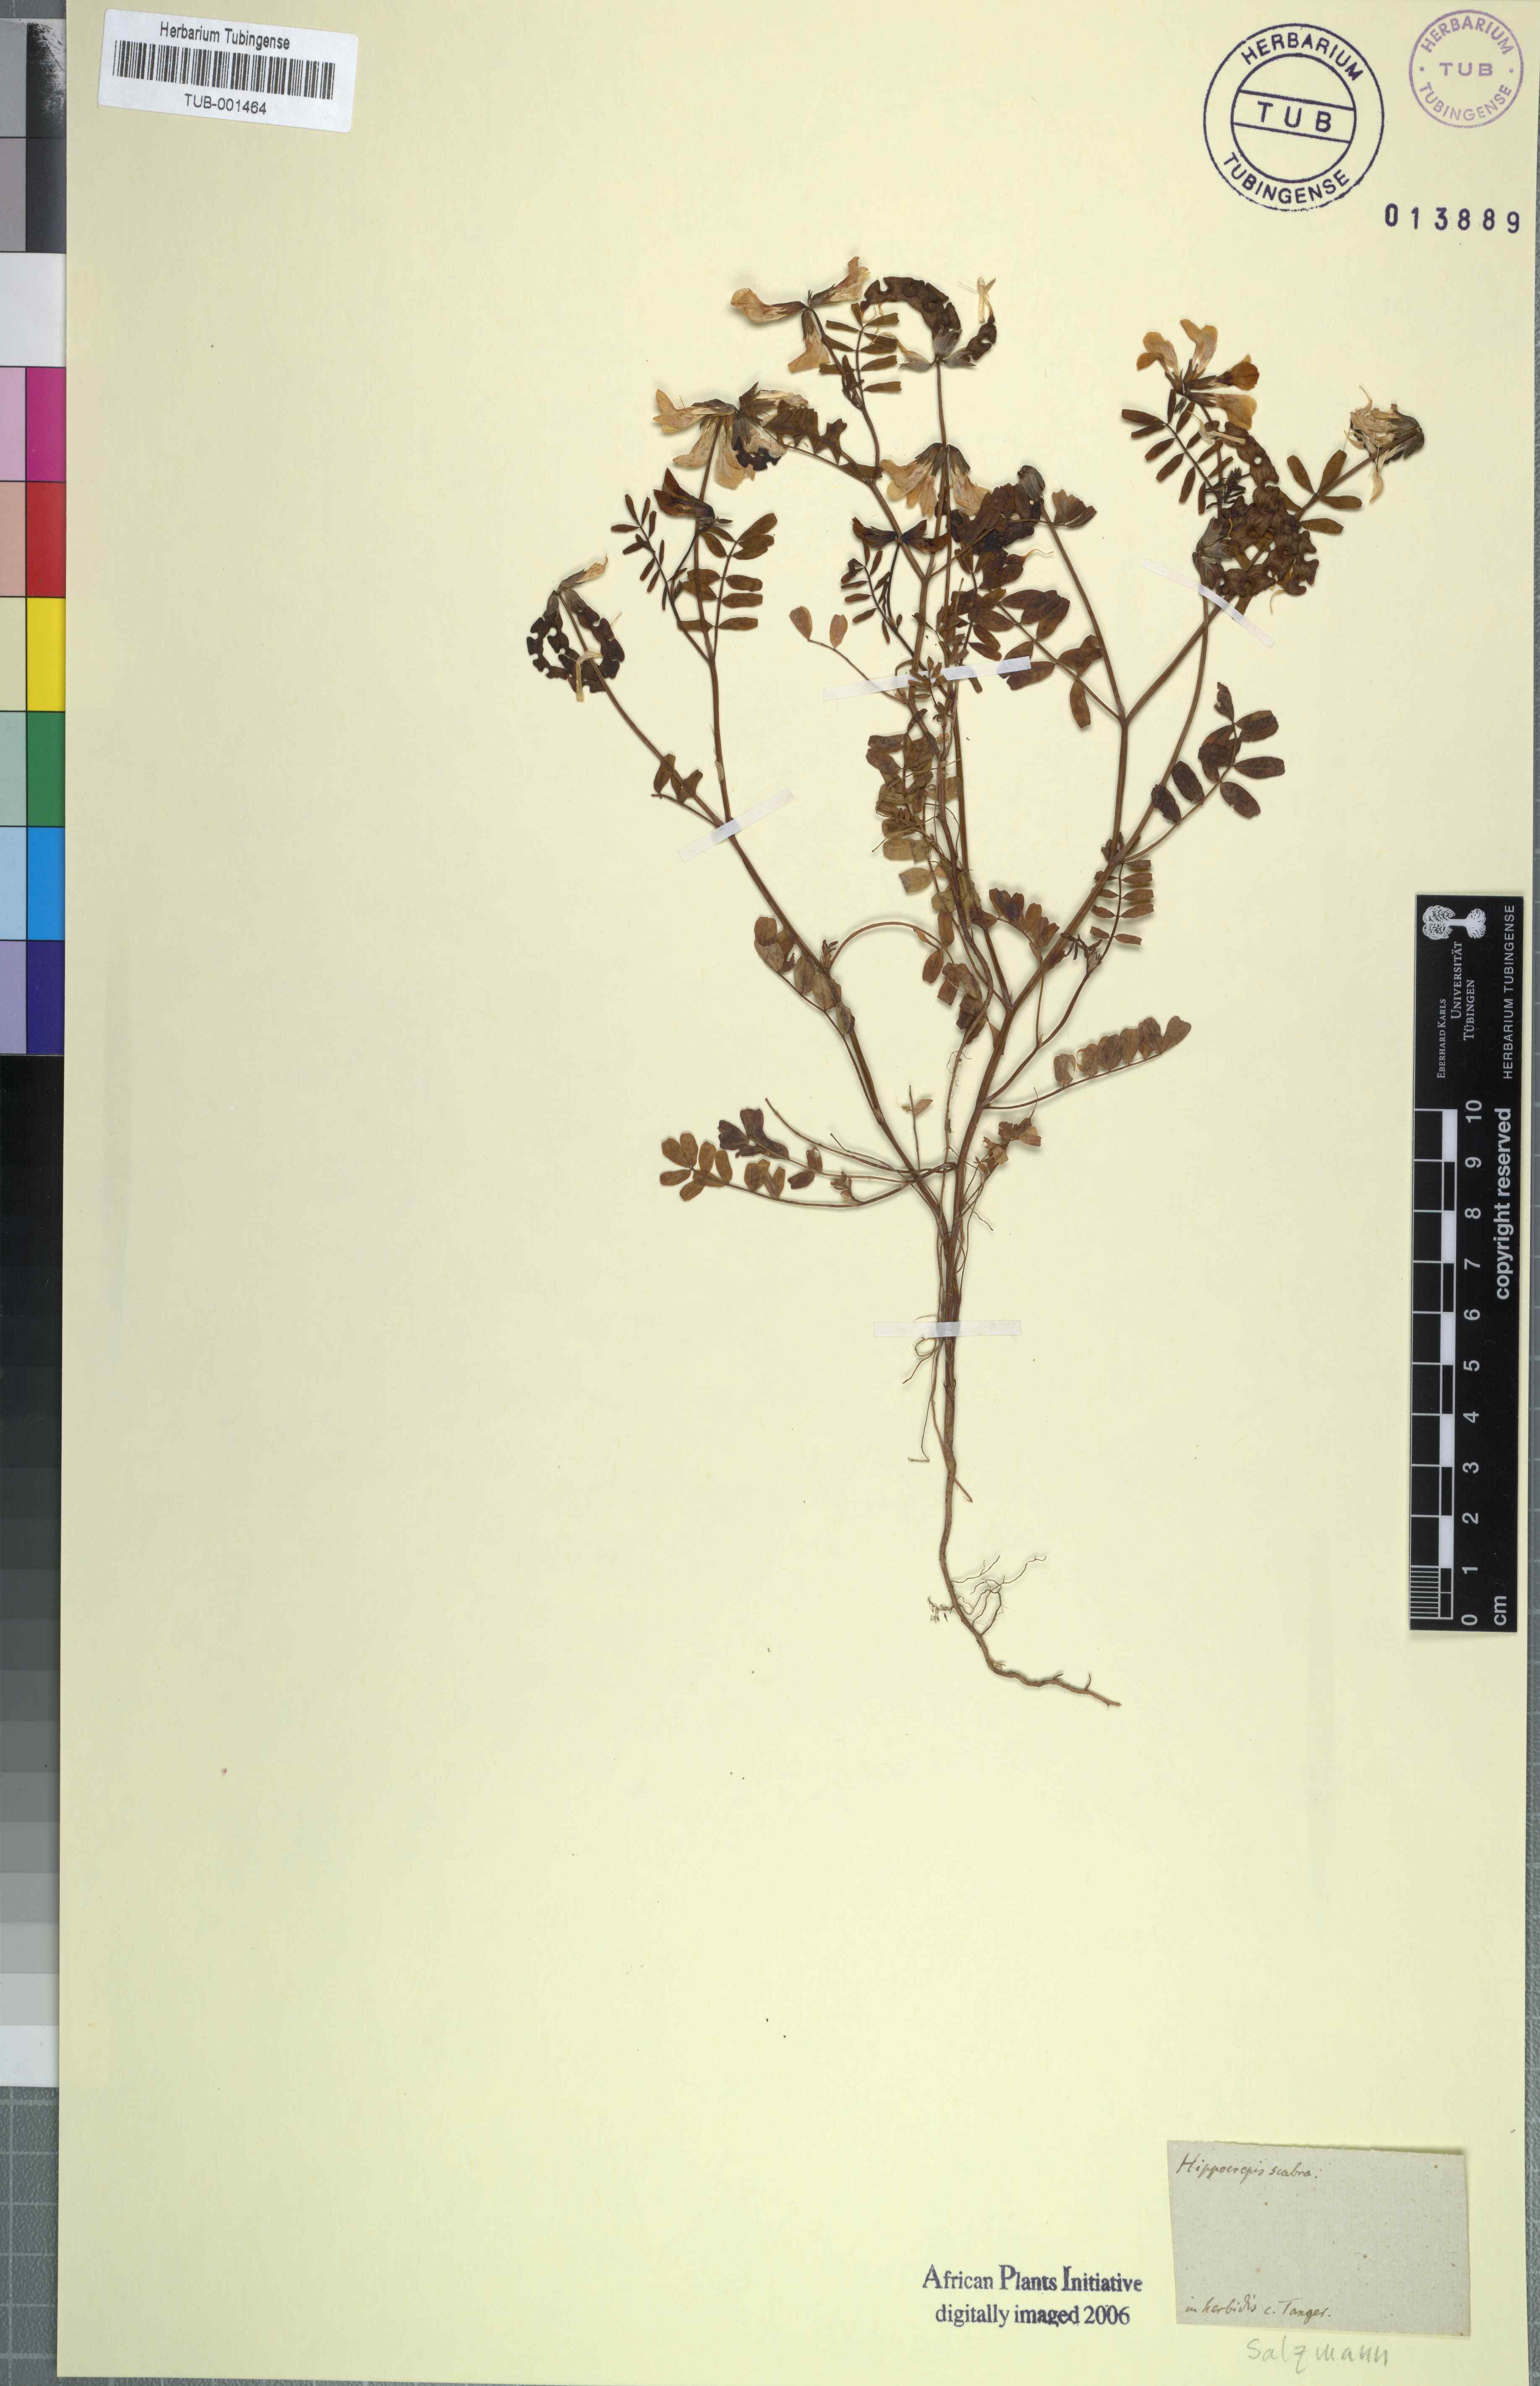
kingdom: Plantae
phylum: Tracheophyta
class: Magnoliopsida
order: Fabales
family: Fabaceae
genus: Hippocrepis
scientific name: Hippocrepis salzmannii
